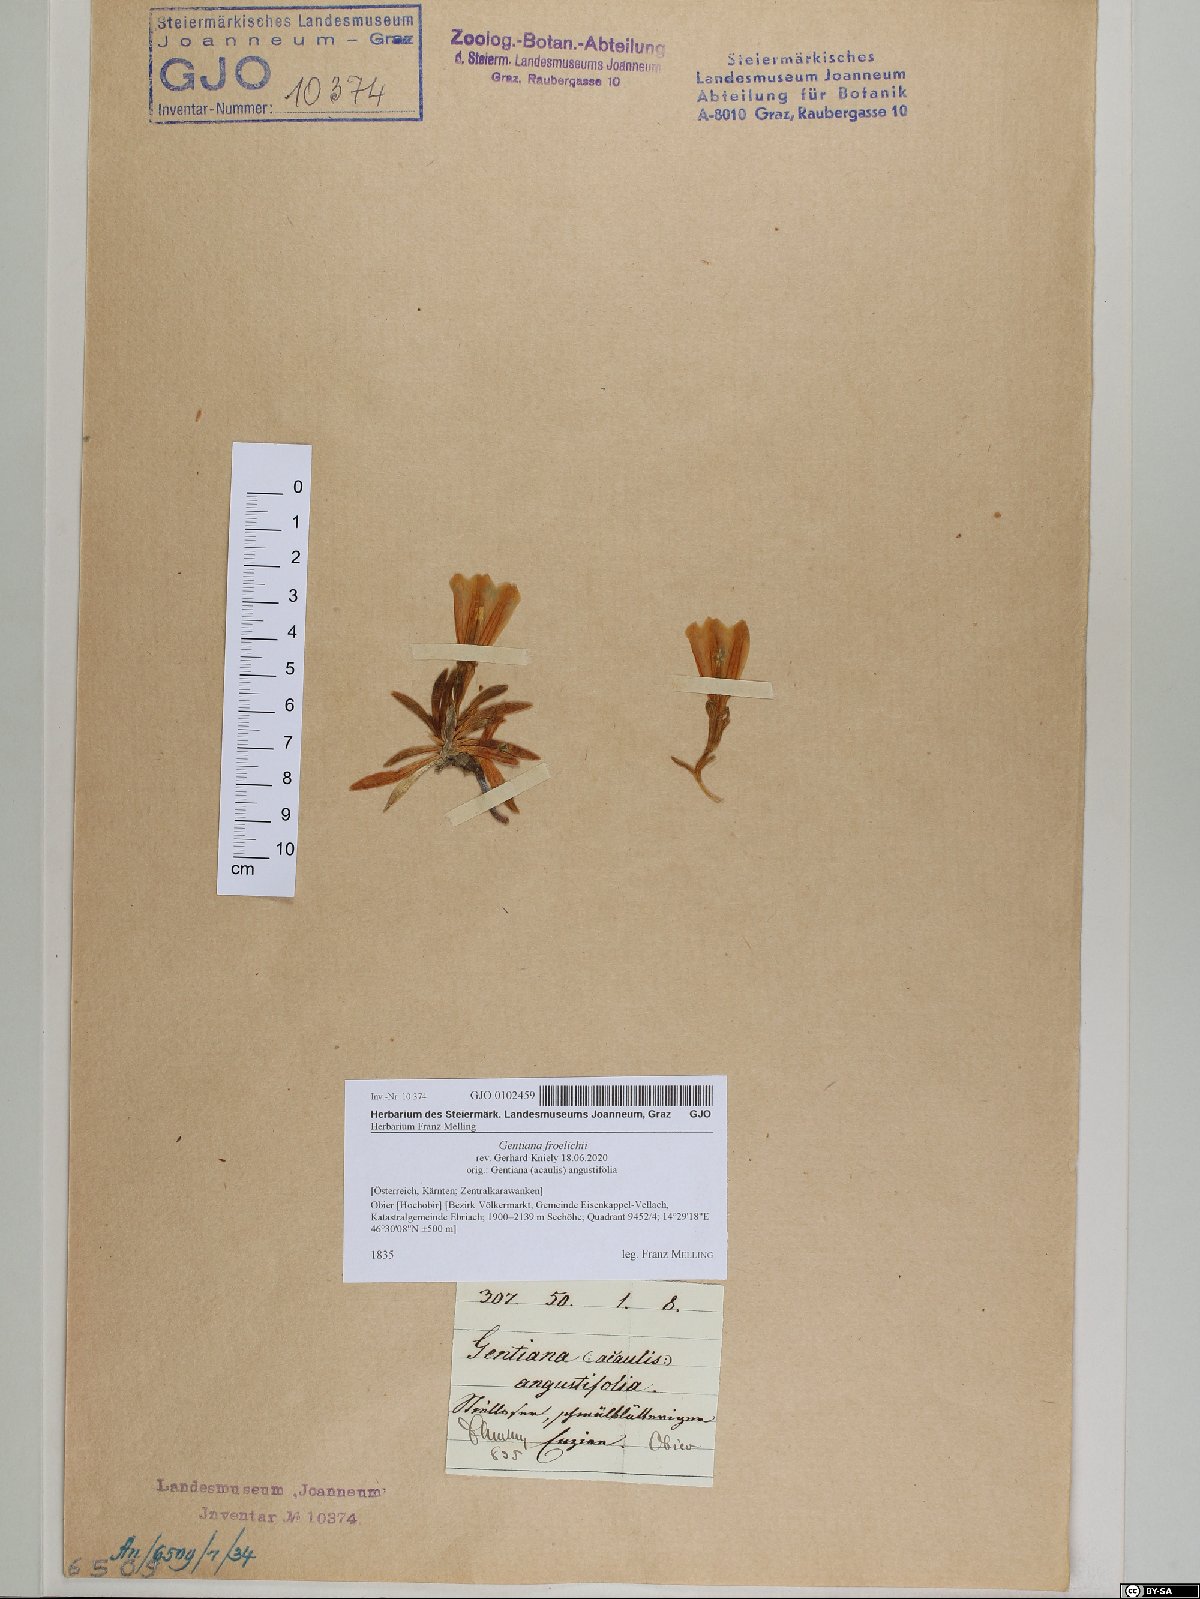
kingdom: Plantae
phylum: Tracheophyta
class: Magnoliopsida
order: Gentianales
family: Gentianaceae
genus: Gentiana
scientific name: Gentiana froelichii
